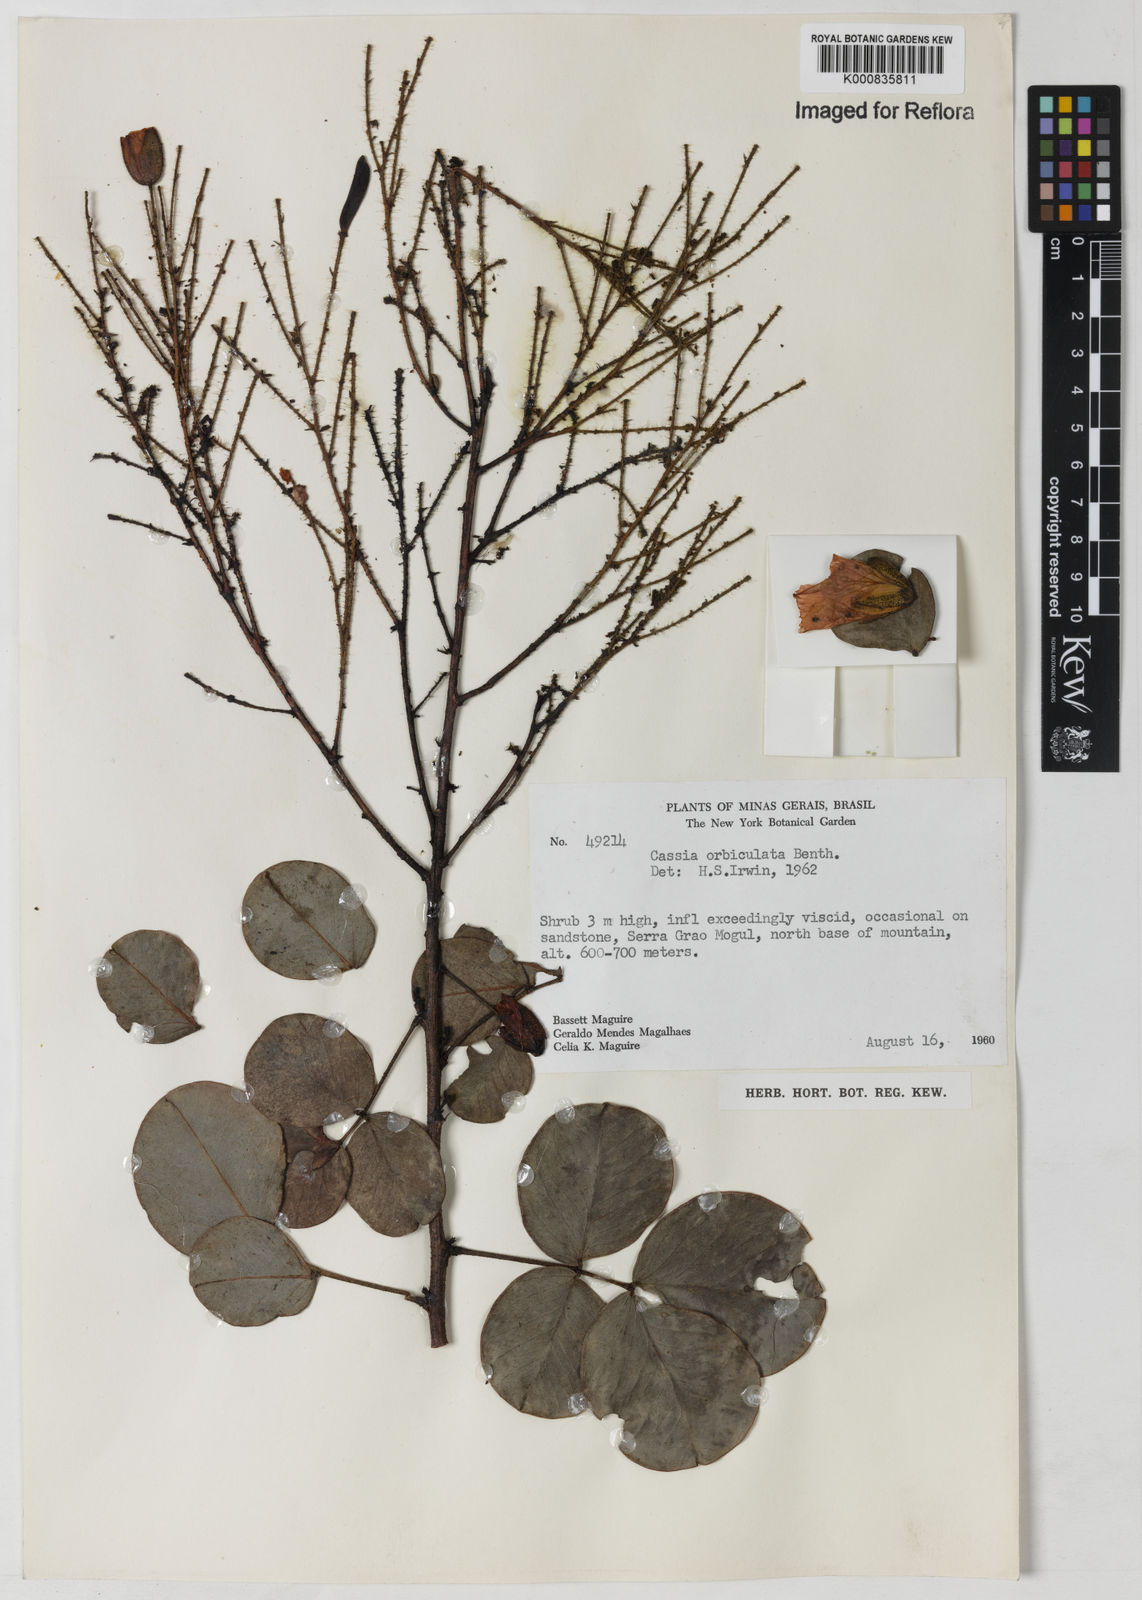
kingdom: Plantae
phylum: Tracheophyta
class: Magnoliopsida
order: Fabales
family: Fabaceae
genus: Chamaecrista
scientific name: Chamaecrista orbiculata
